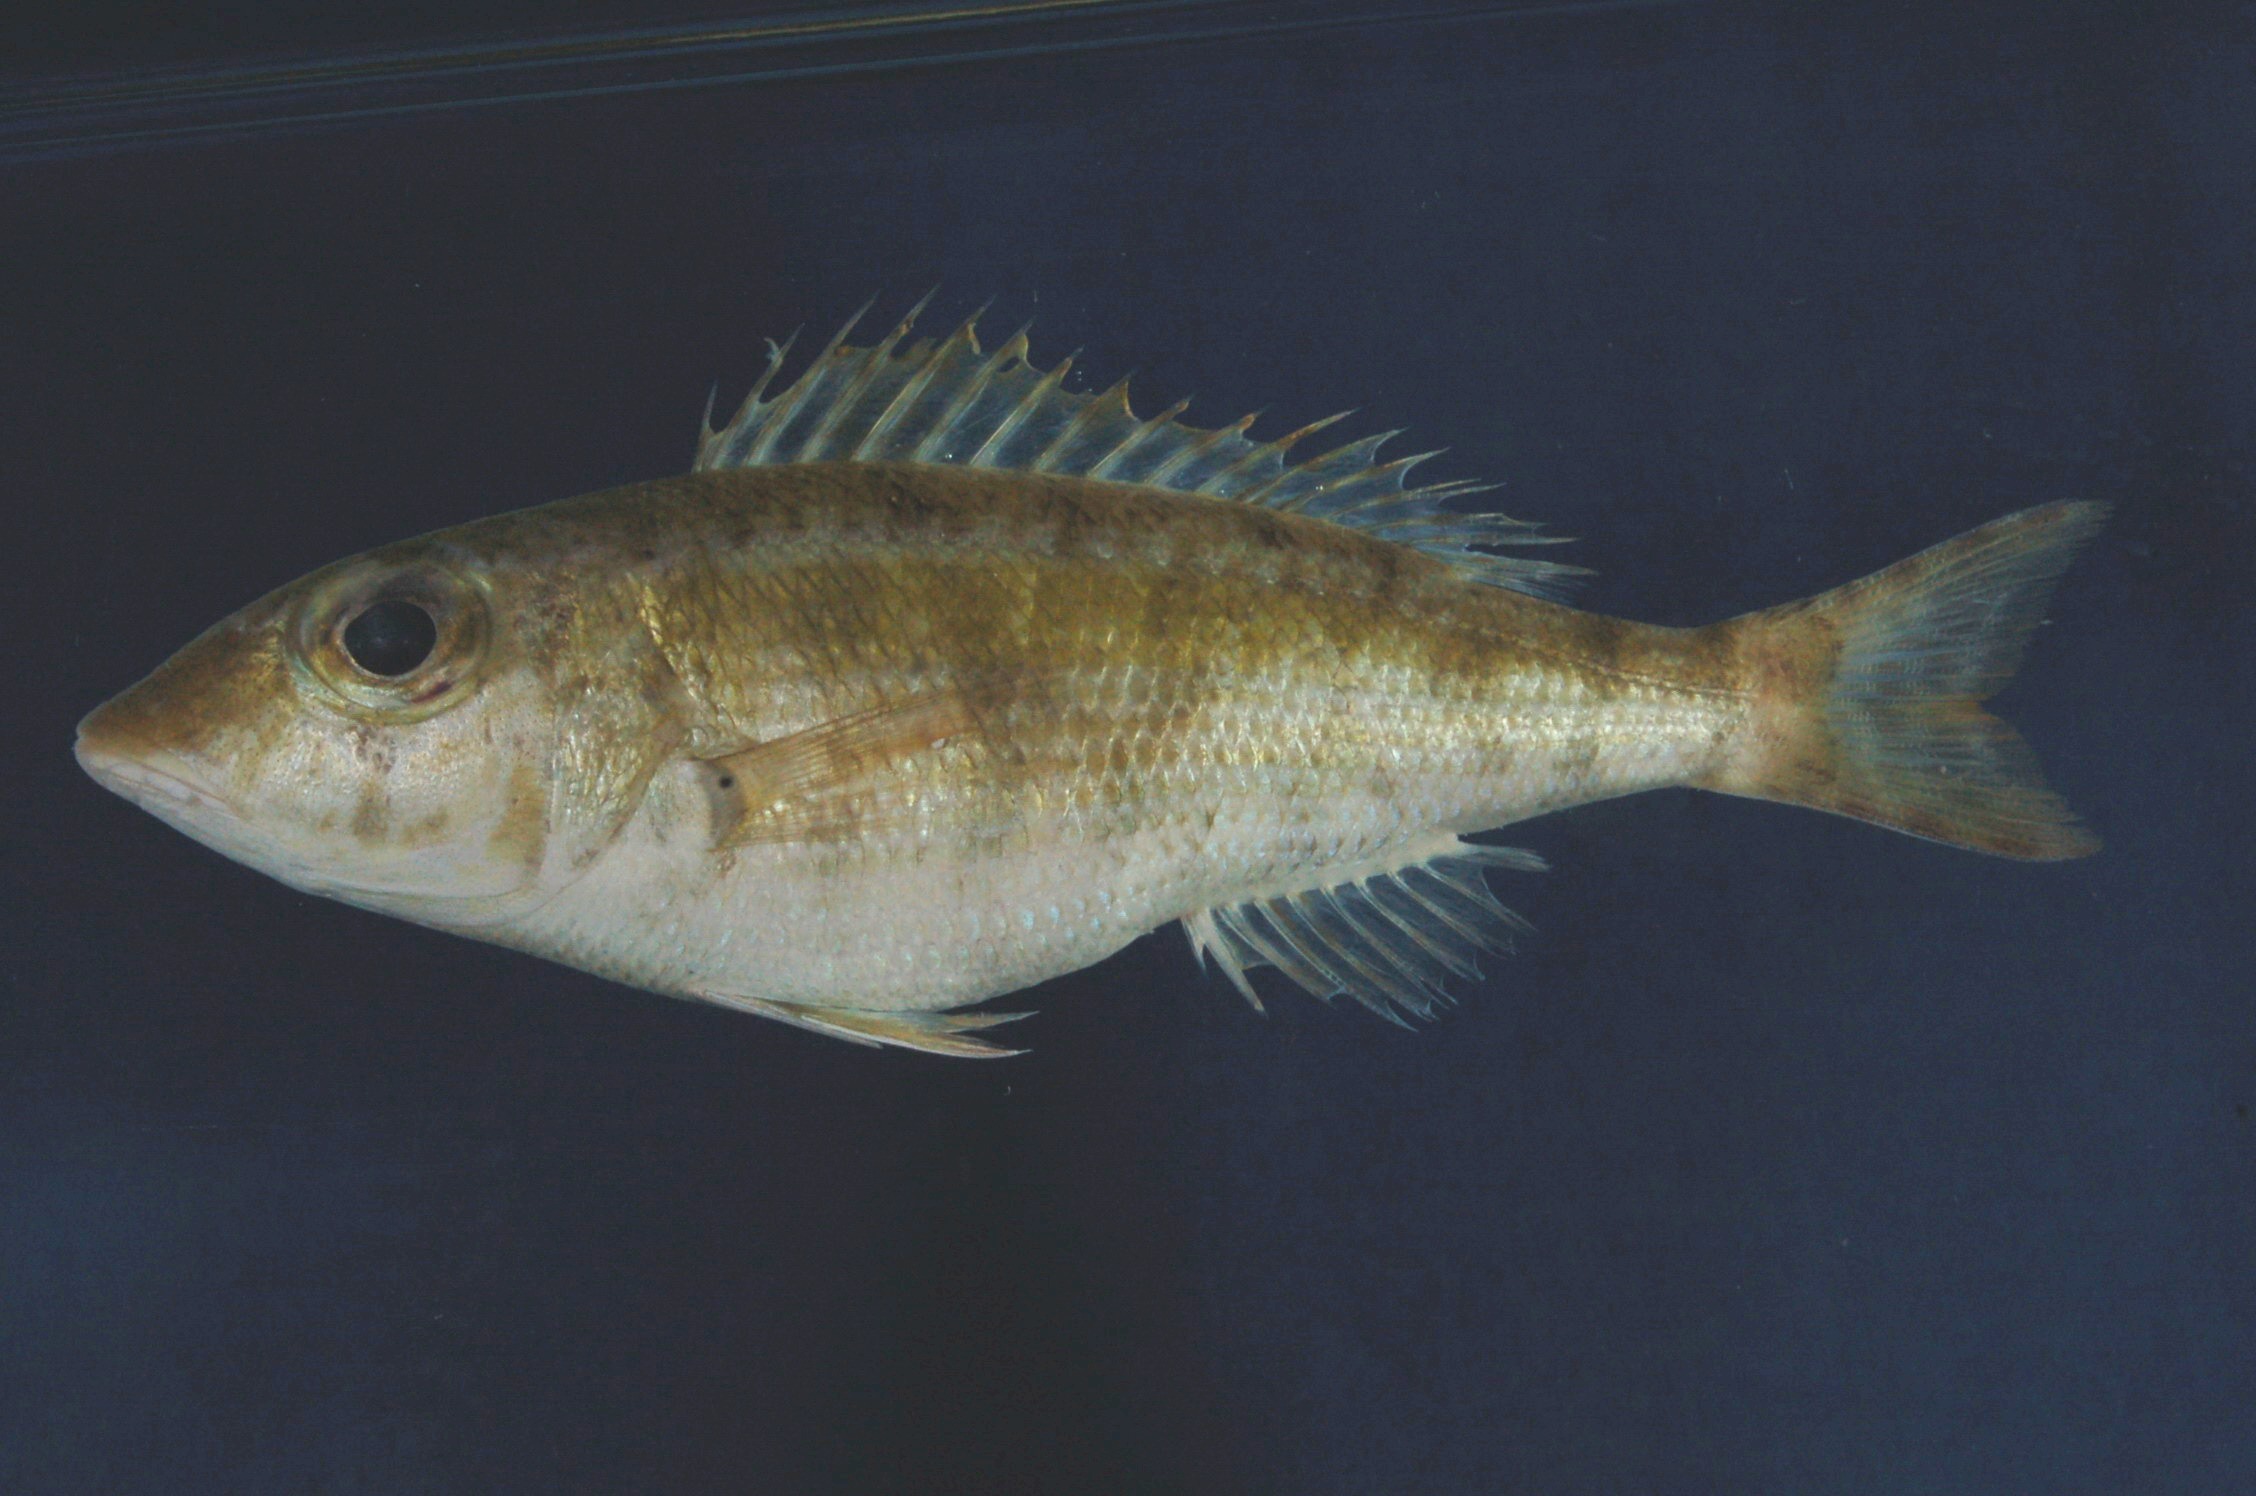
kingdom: Animalia
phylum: Chordata
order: Perciformes
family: Lethrinidae
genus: Lethrinus
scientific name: Lethrinus rubrioperculatus
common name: Spotcheek emperor
